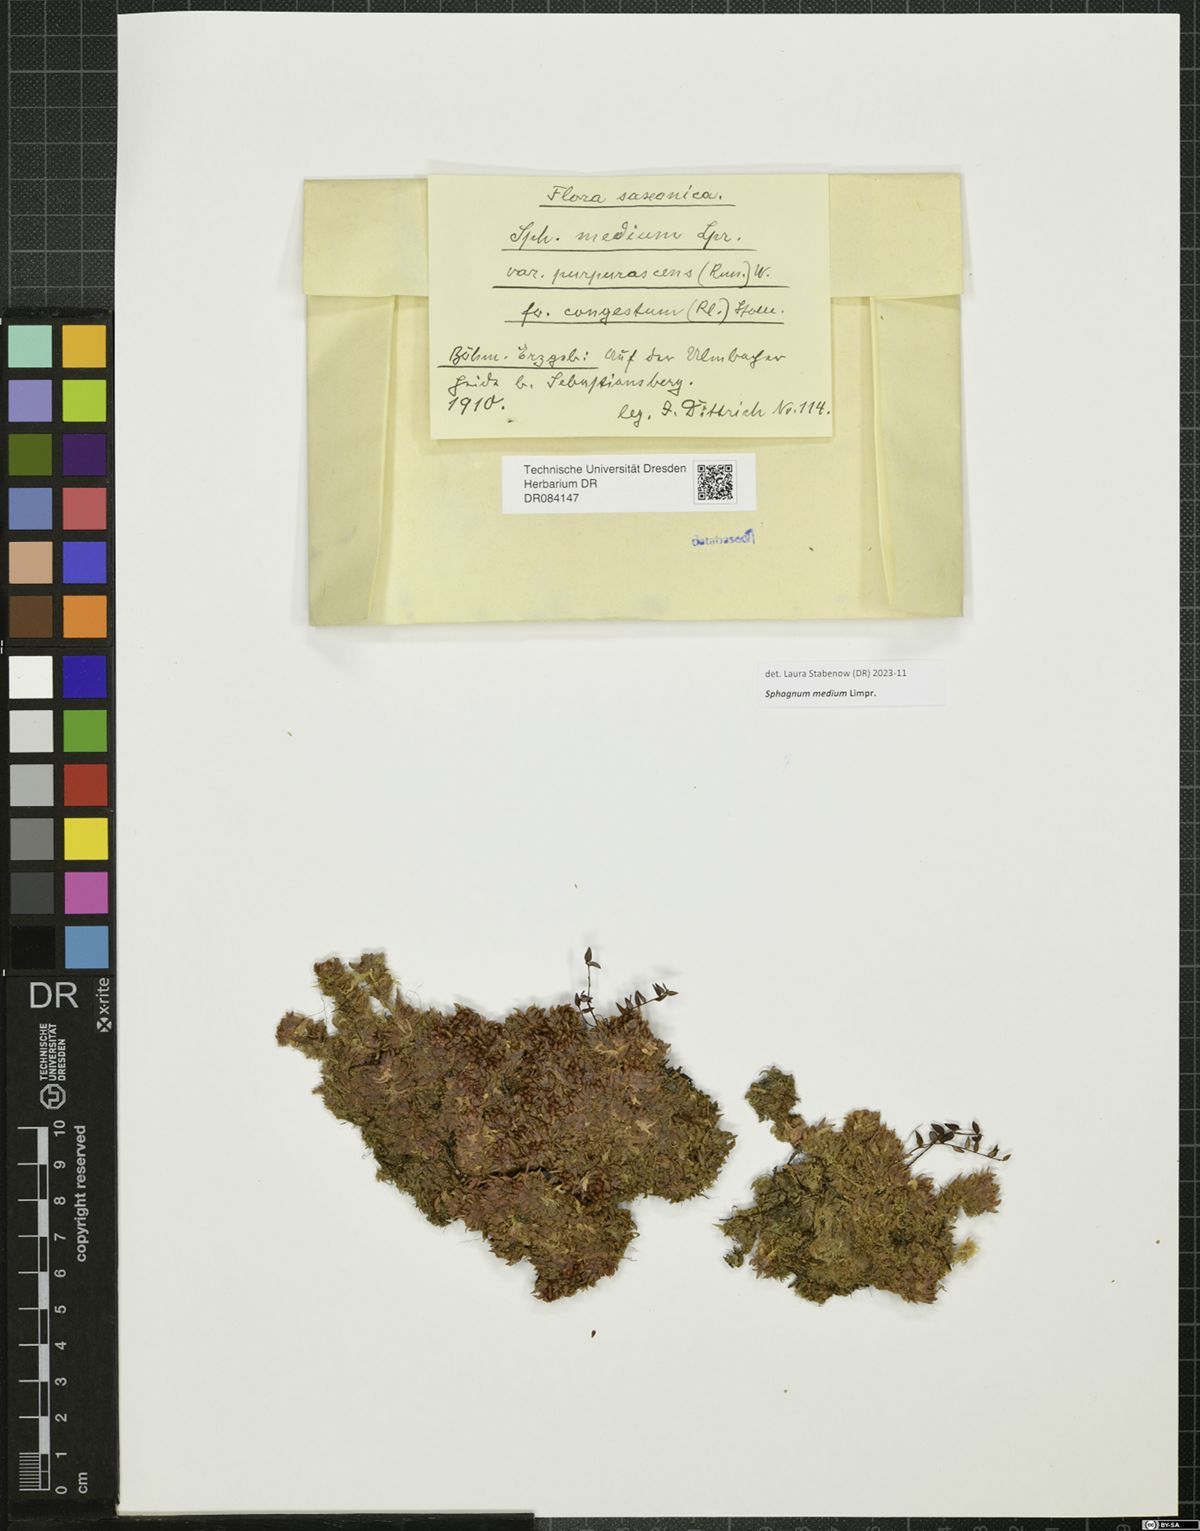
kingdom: Plantae
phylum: Bryophyta
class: Sphagnopsida
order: Sphagnales
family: Sphagnaceae
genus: Sphagnum
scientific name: Sphagnum medium
